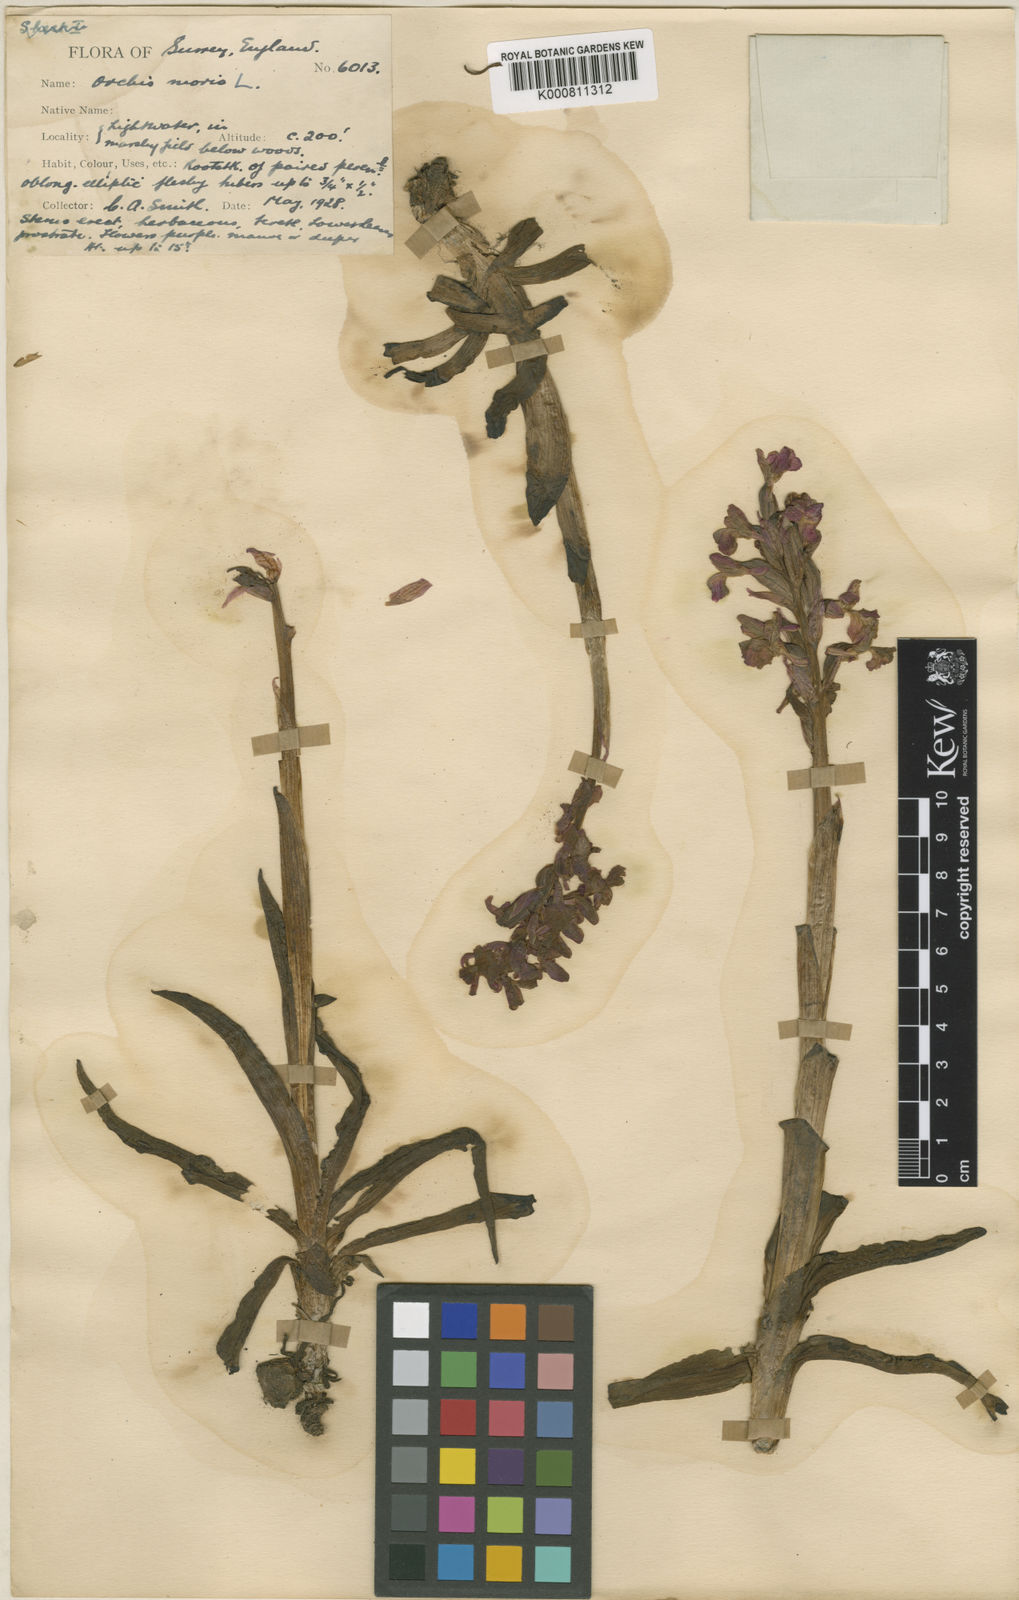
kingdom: Plantae
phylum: Tracheophyta
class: Liliopsida
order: Asparagales
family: Orchidaceae
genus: Anacamptis
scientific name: Anacamptis morio
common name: Green-winged orchid
